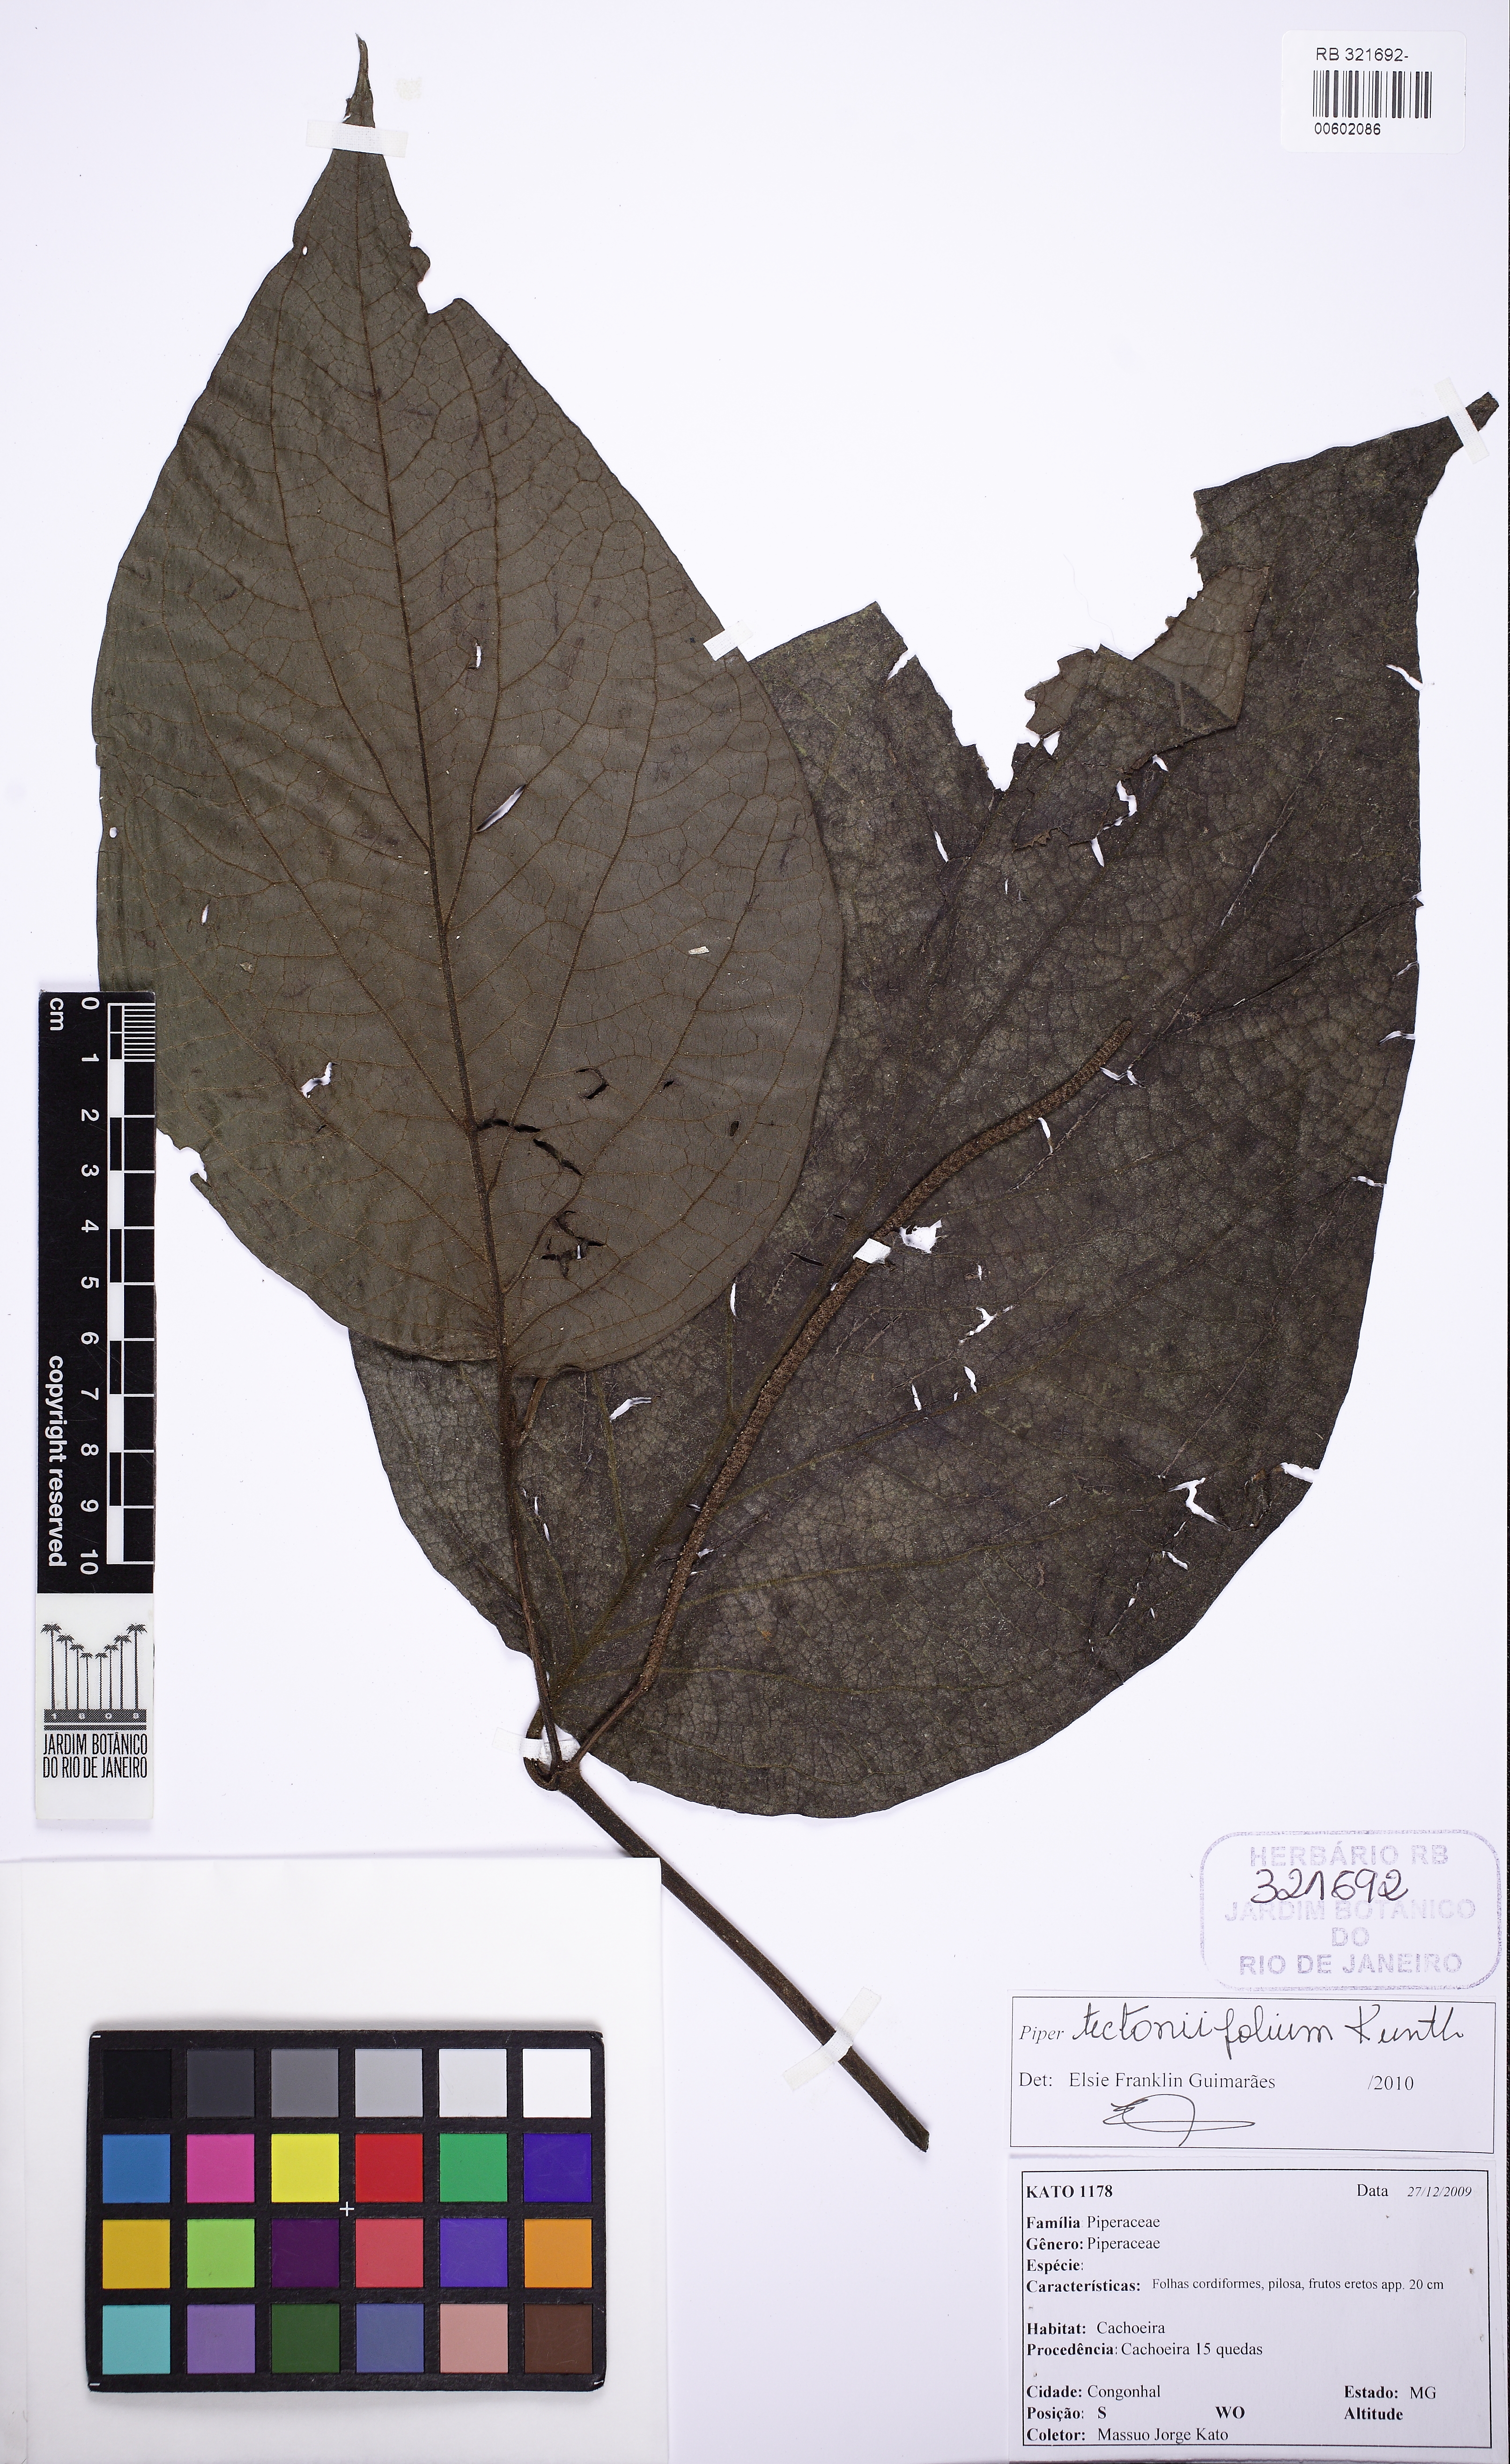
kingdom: Plantae
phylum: Tracheophyta
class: Magnoliopsida
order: Piperales
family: Piperaceae
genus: Piper
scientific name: Piper tectoniifolium
